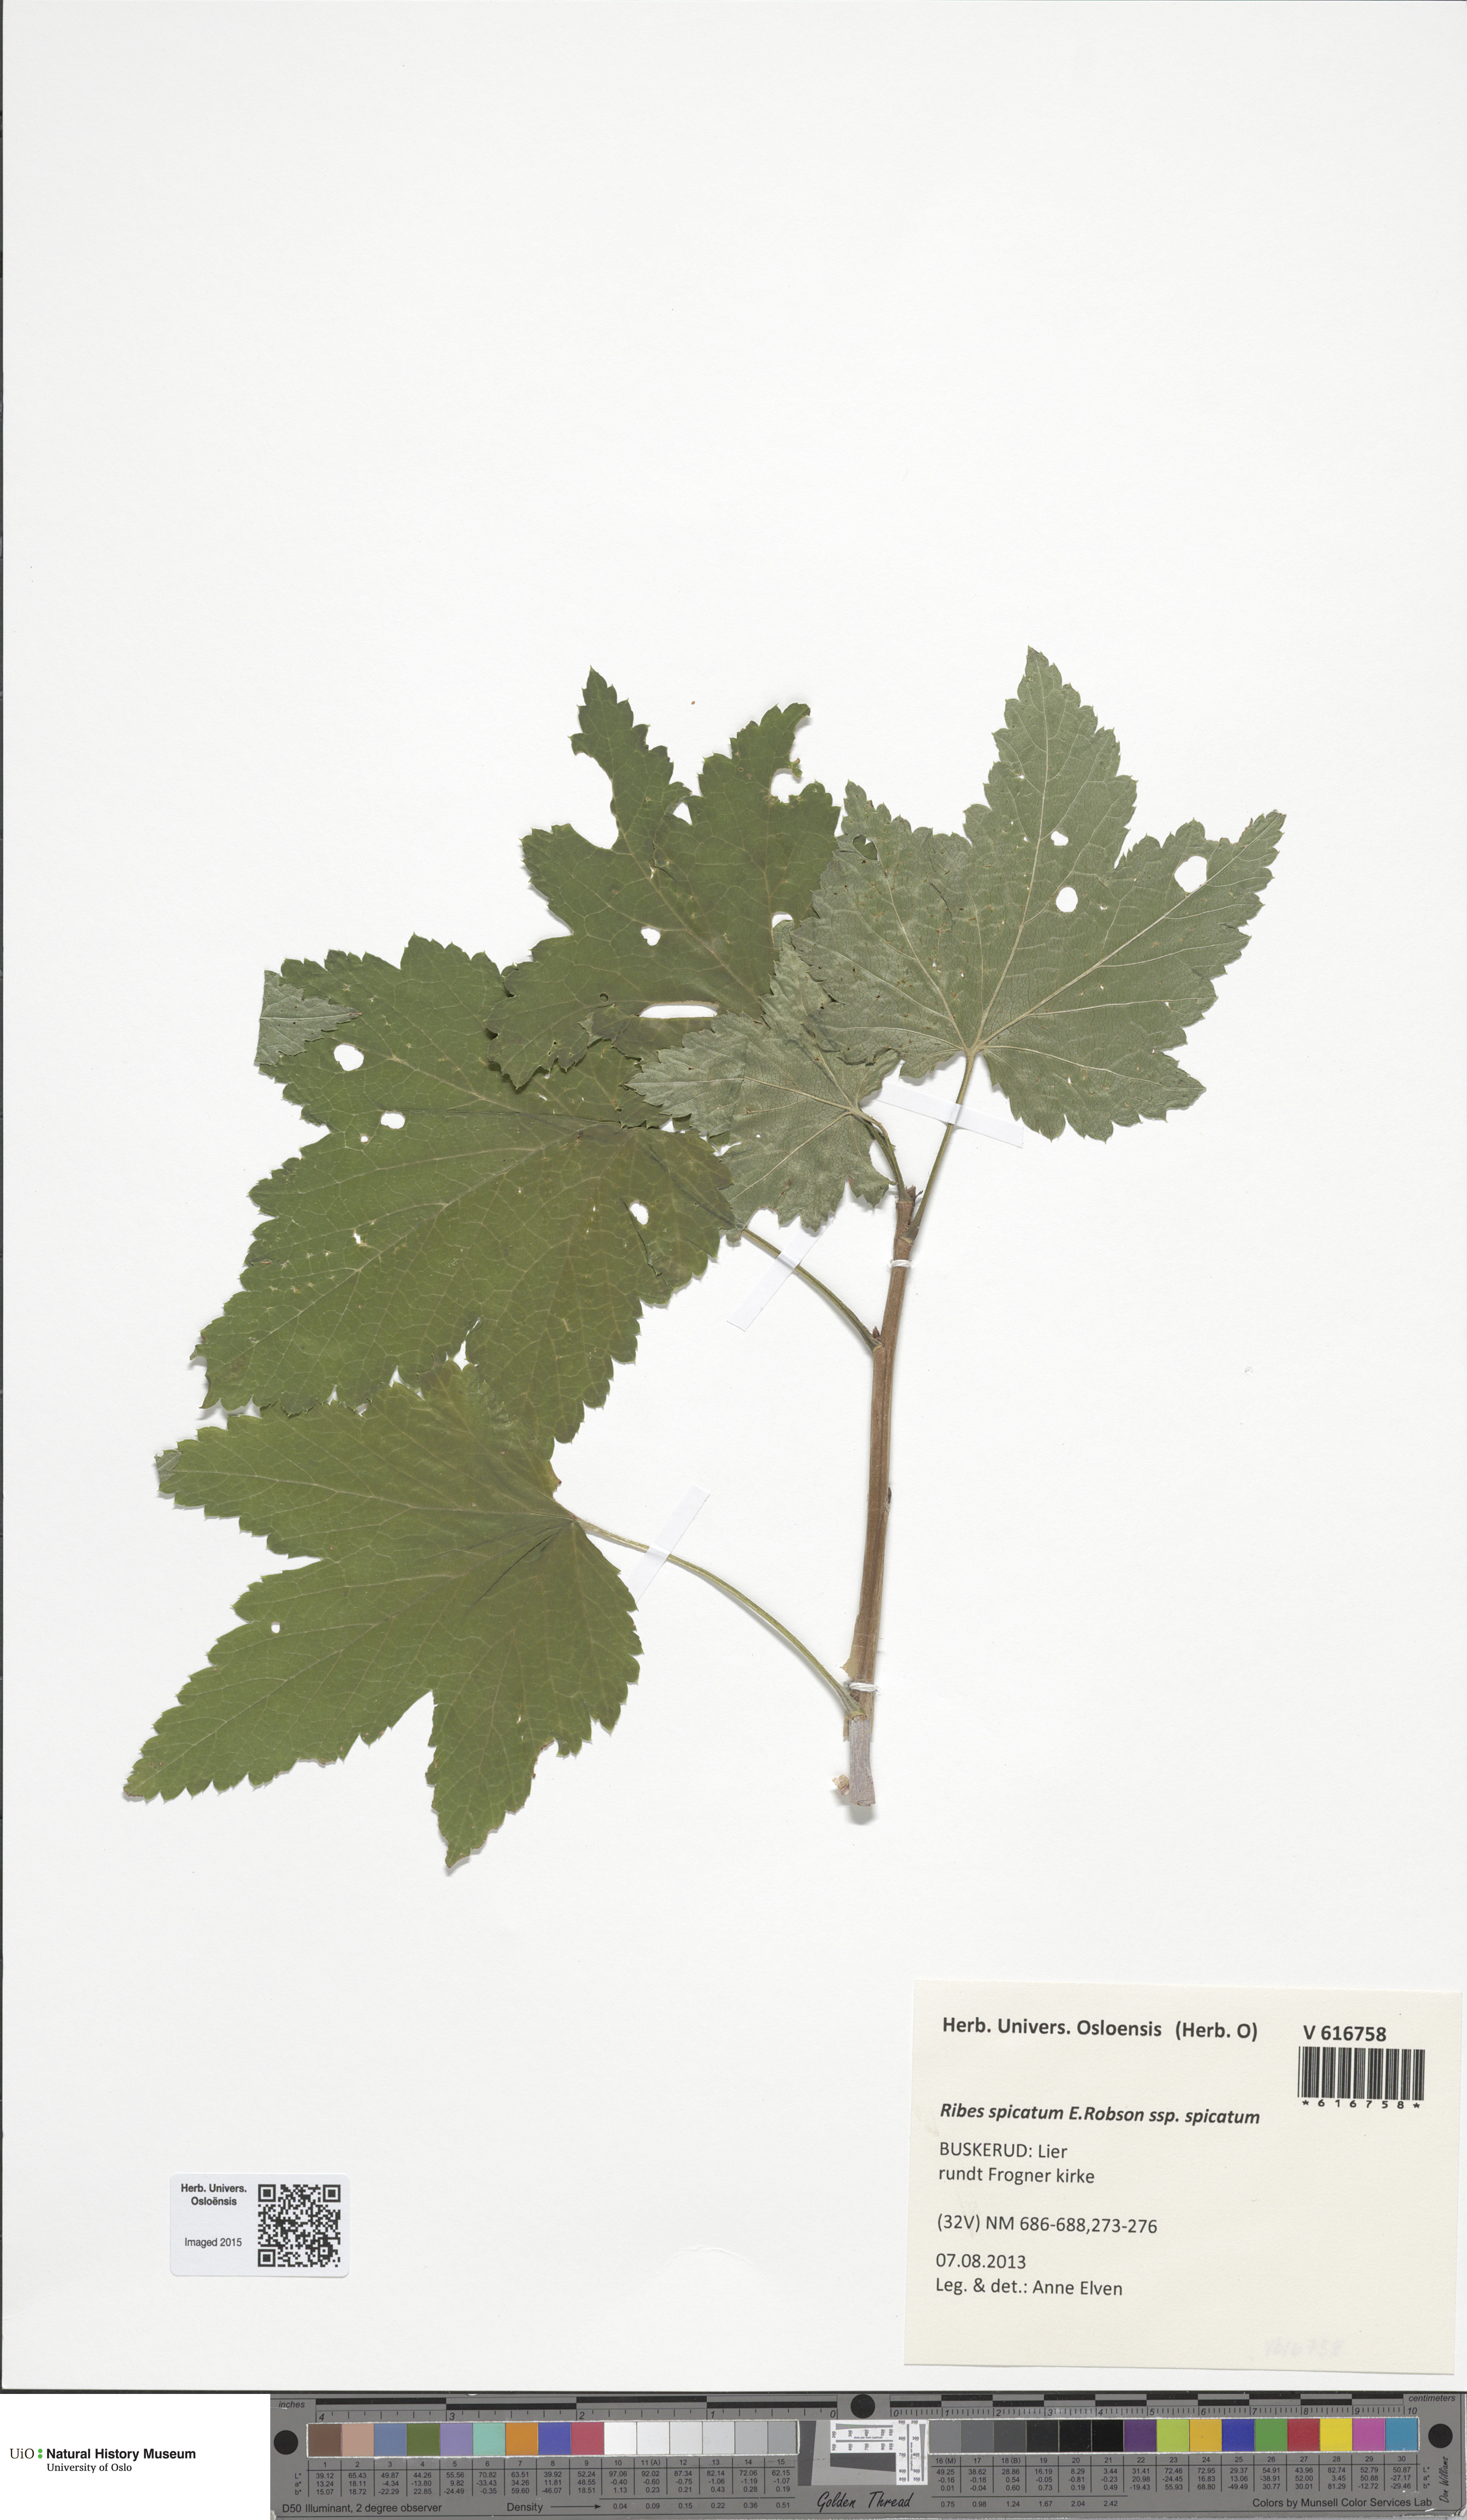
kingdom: Plantae
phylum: Tracheophyta
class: Magnoliopsida
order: Saxifragales
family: Grossulariaceae
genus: Ribes
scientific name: Ribes spicatum
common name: Downy currant
